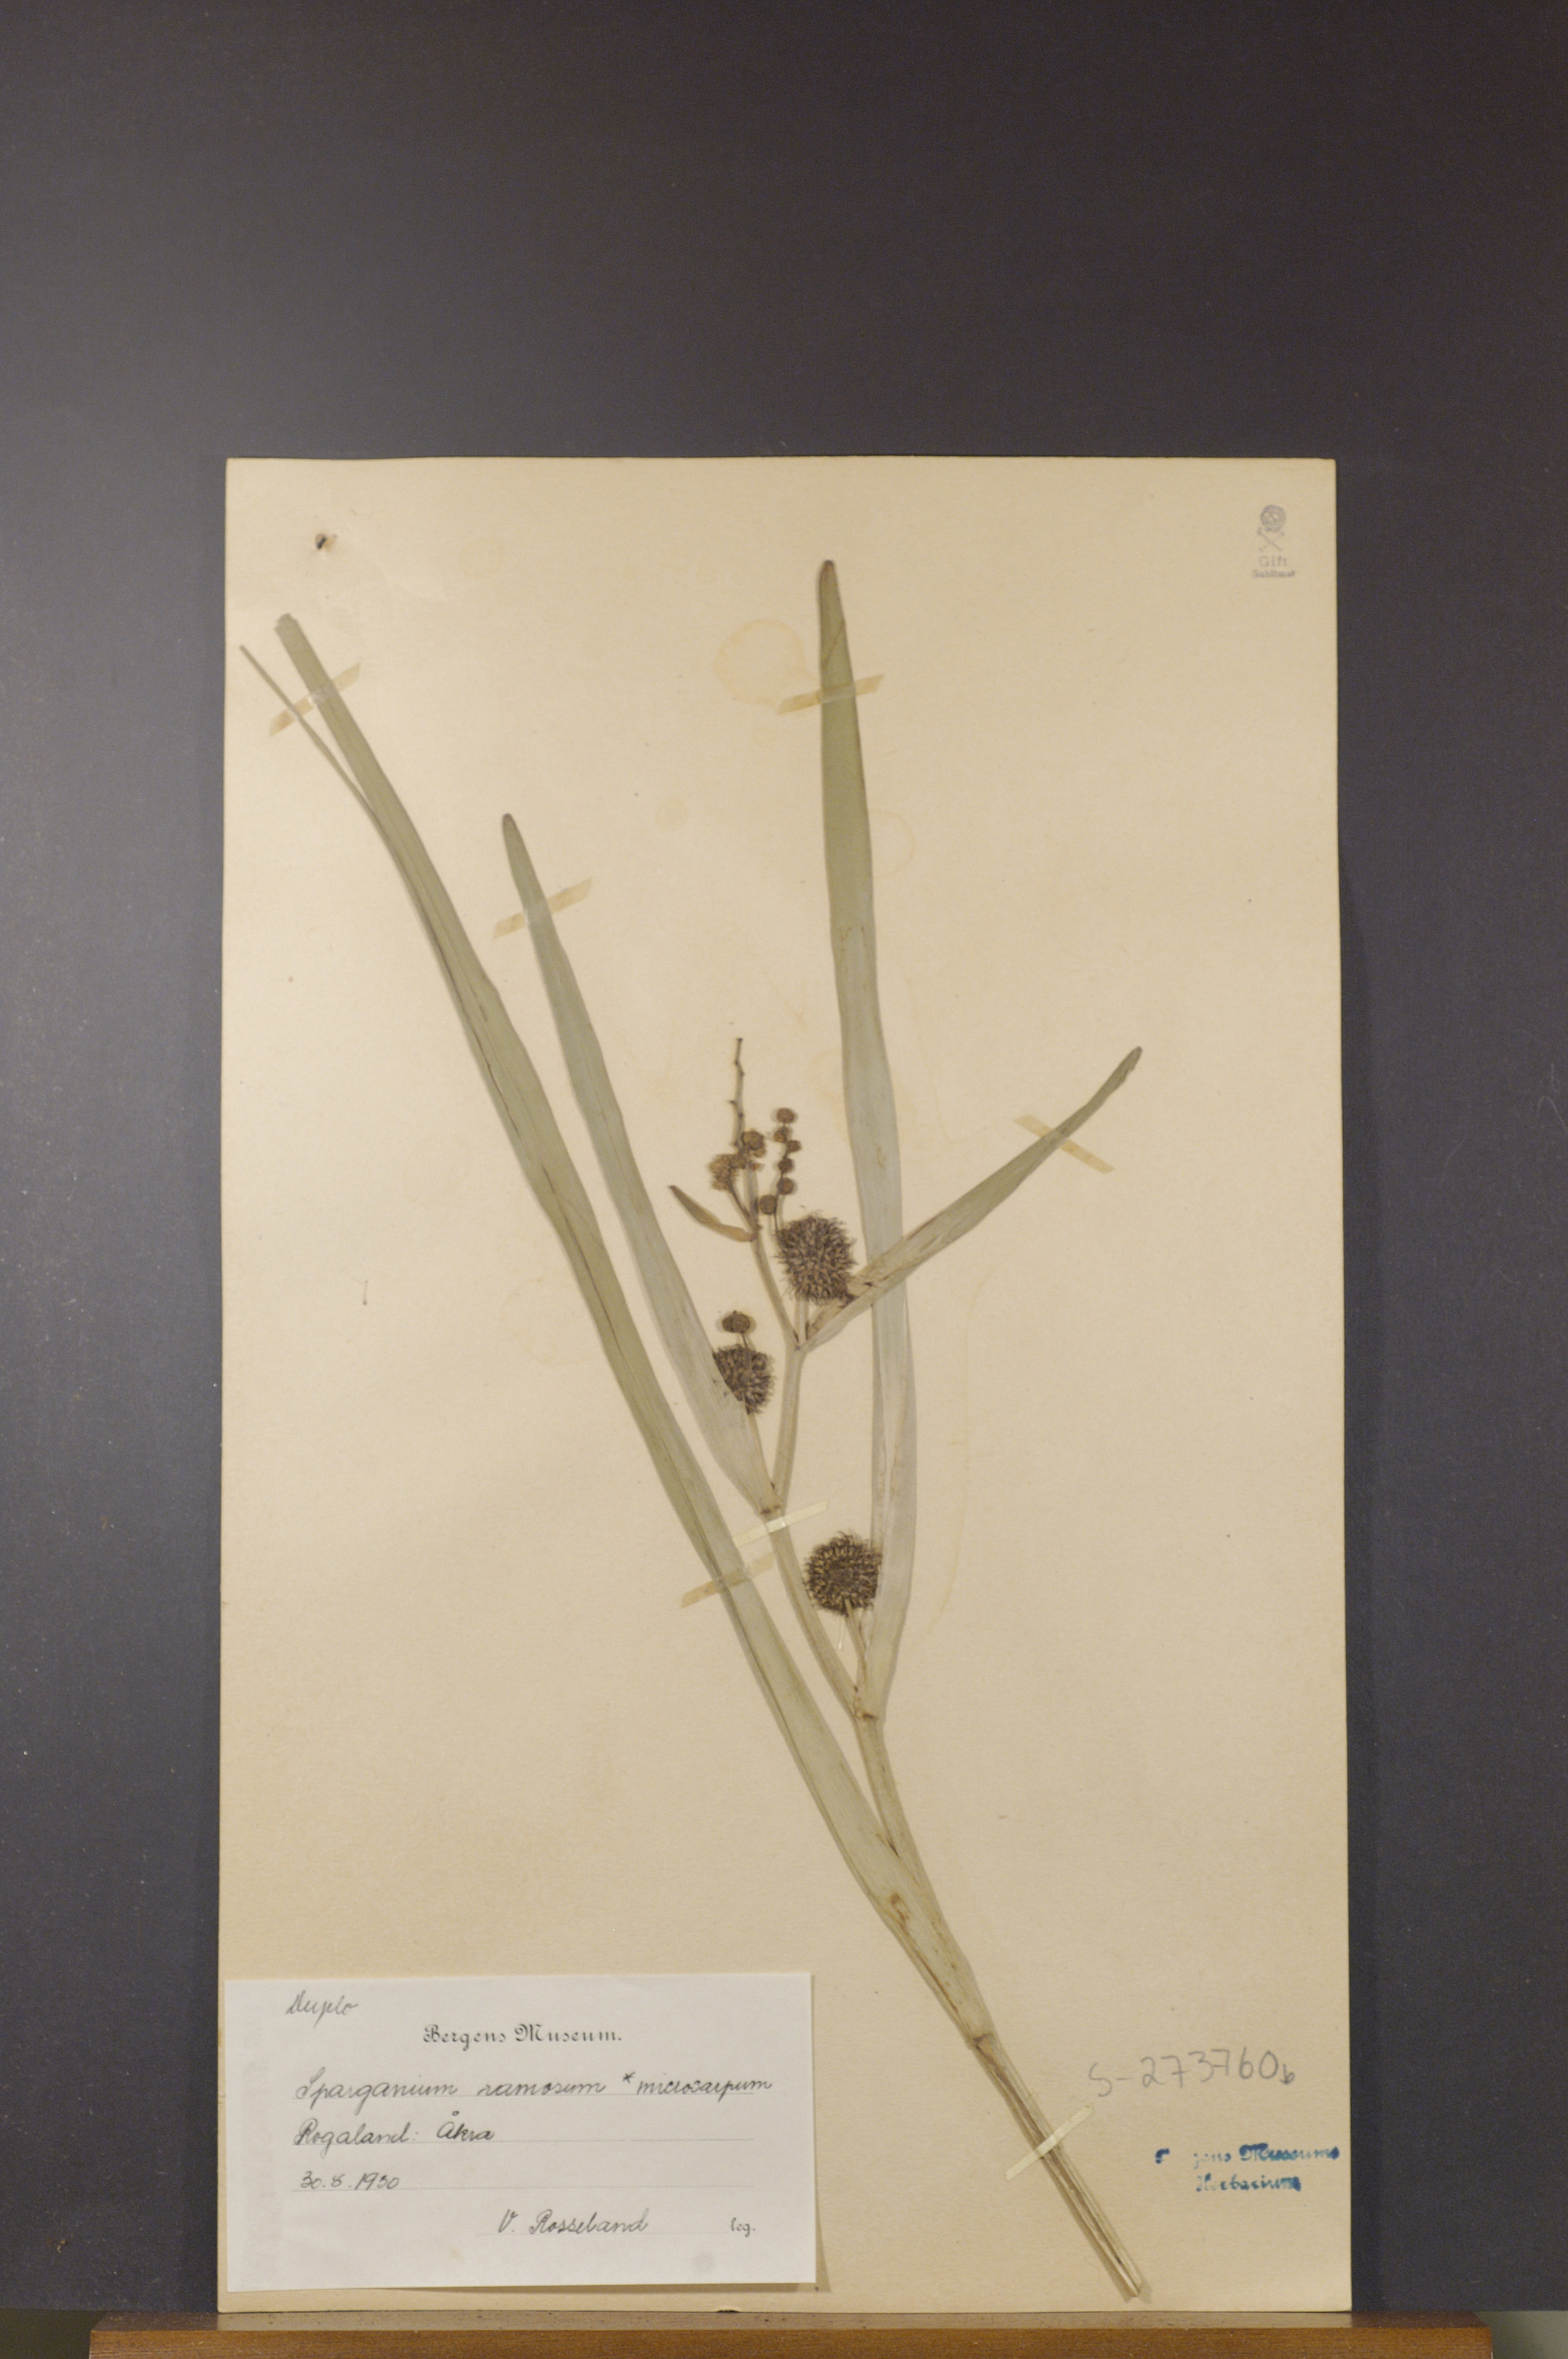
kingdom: Plantae
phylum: Tracheophyta
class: Liliopsida
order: Poales
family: Typhaceae
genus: Sparganium
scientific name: Sparganium erectum
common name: Branched bur-reed
